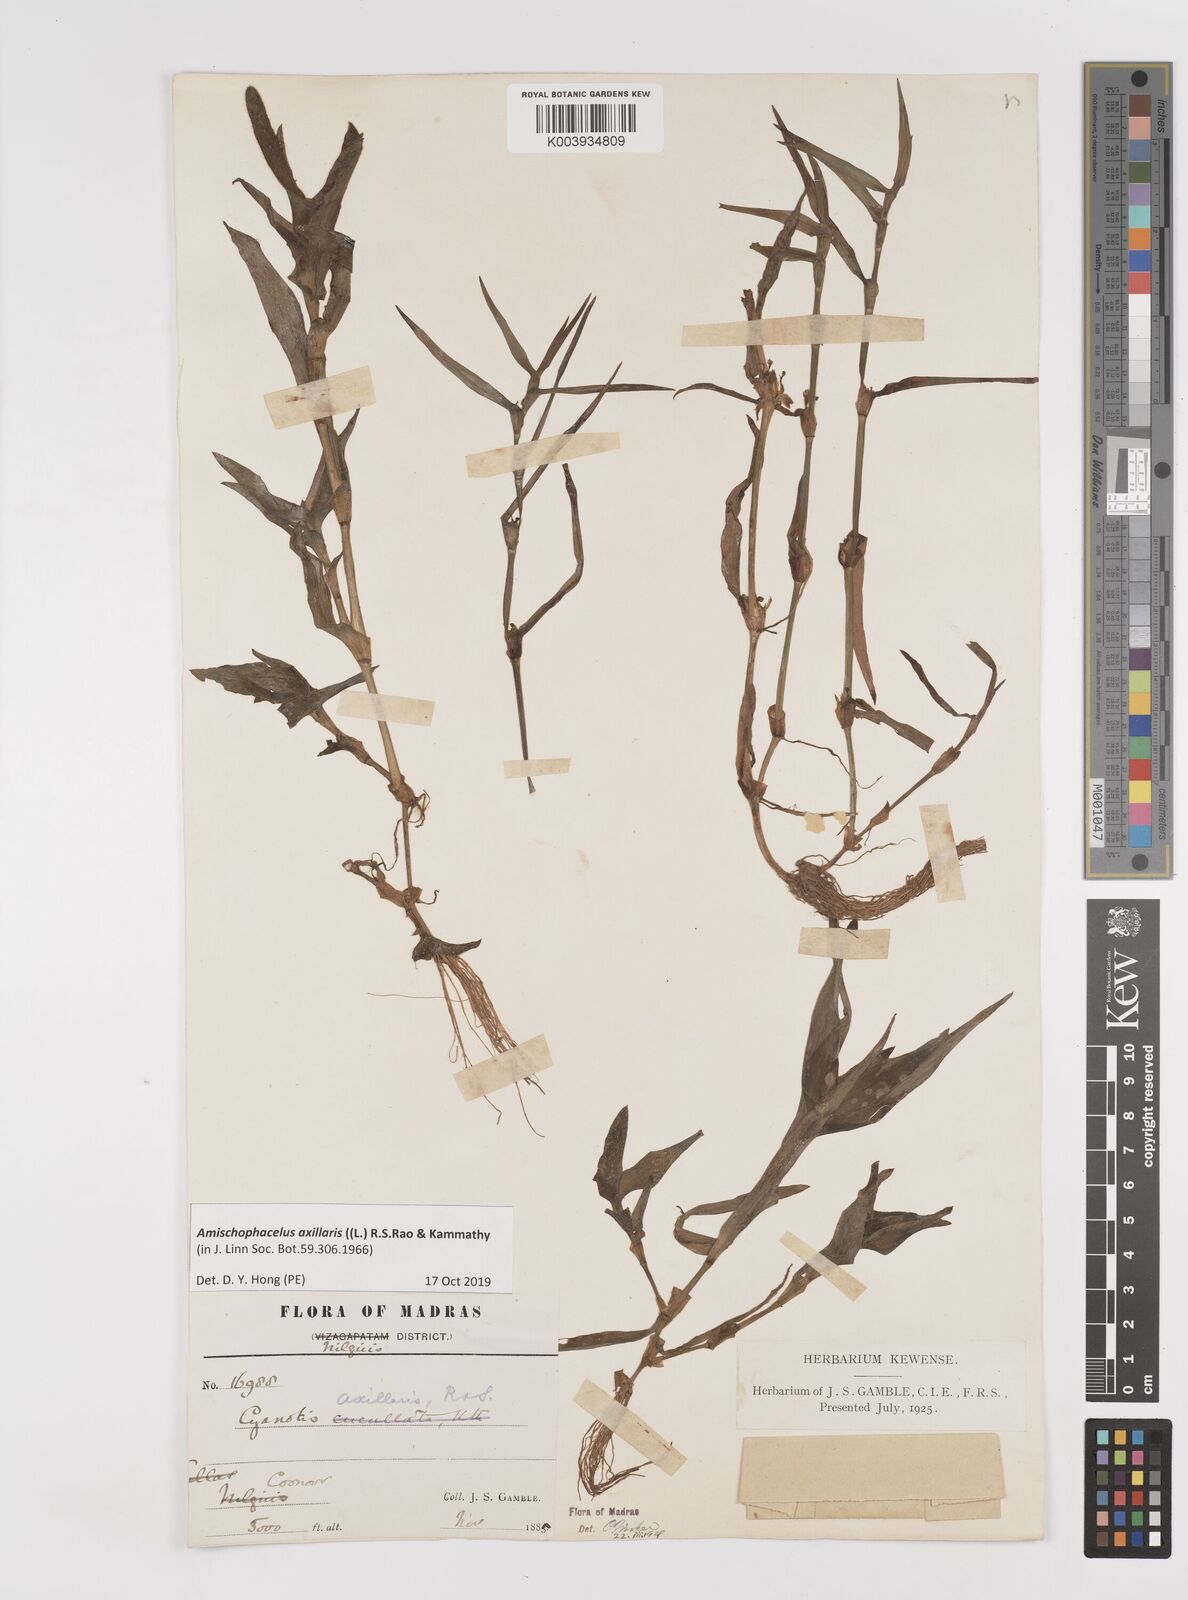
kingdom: Plantae
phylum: Tracheophyta
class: Liliopsida
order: Commelinales
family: Commelinaceae
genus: Cyanotis
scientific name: Cyanotis axillaris
